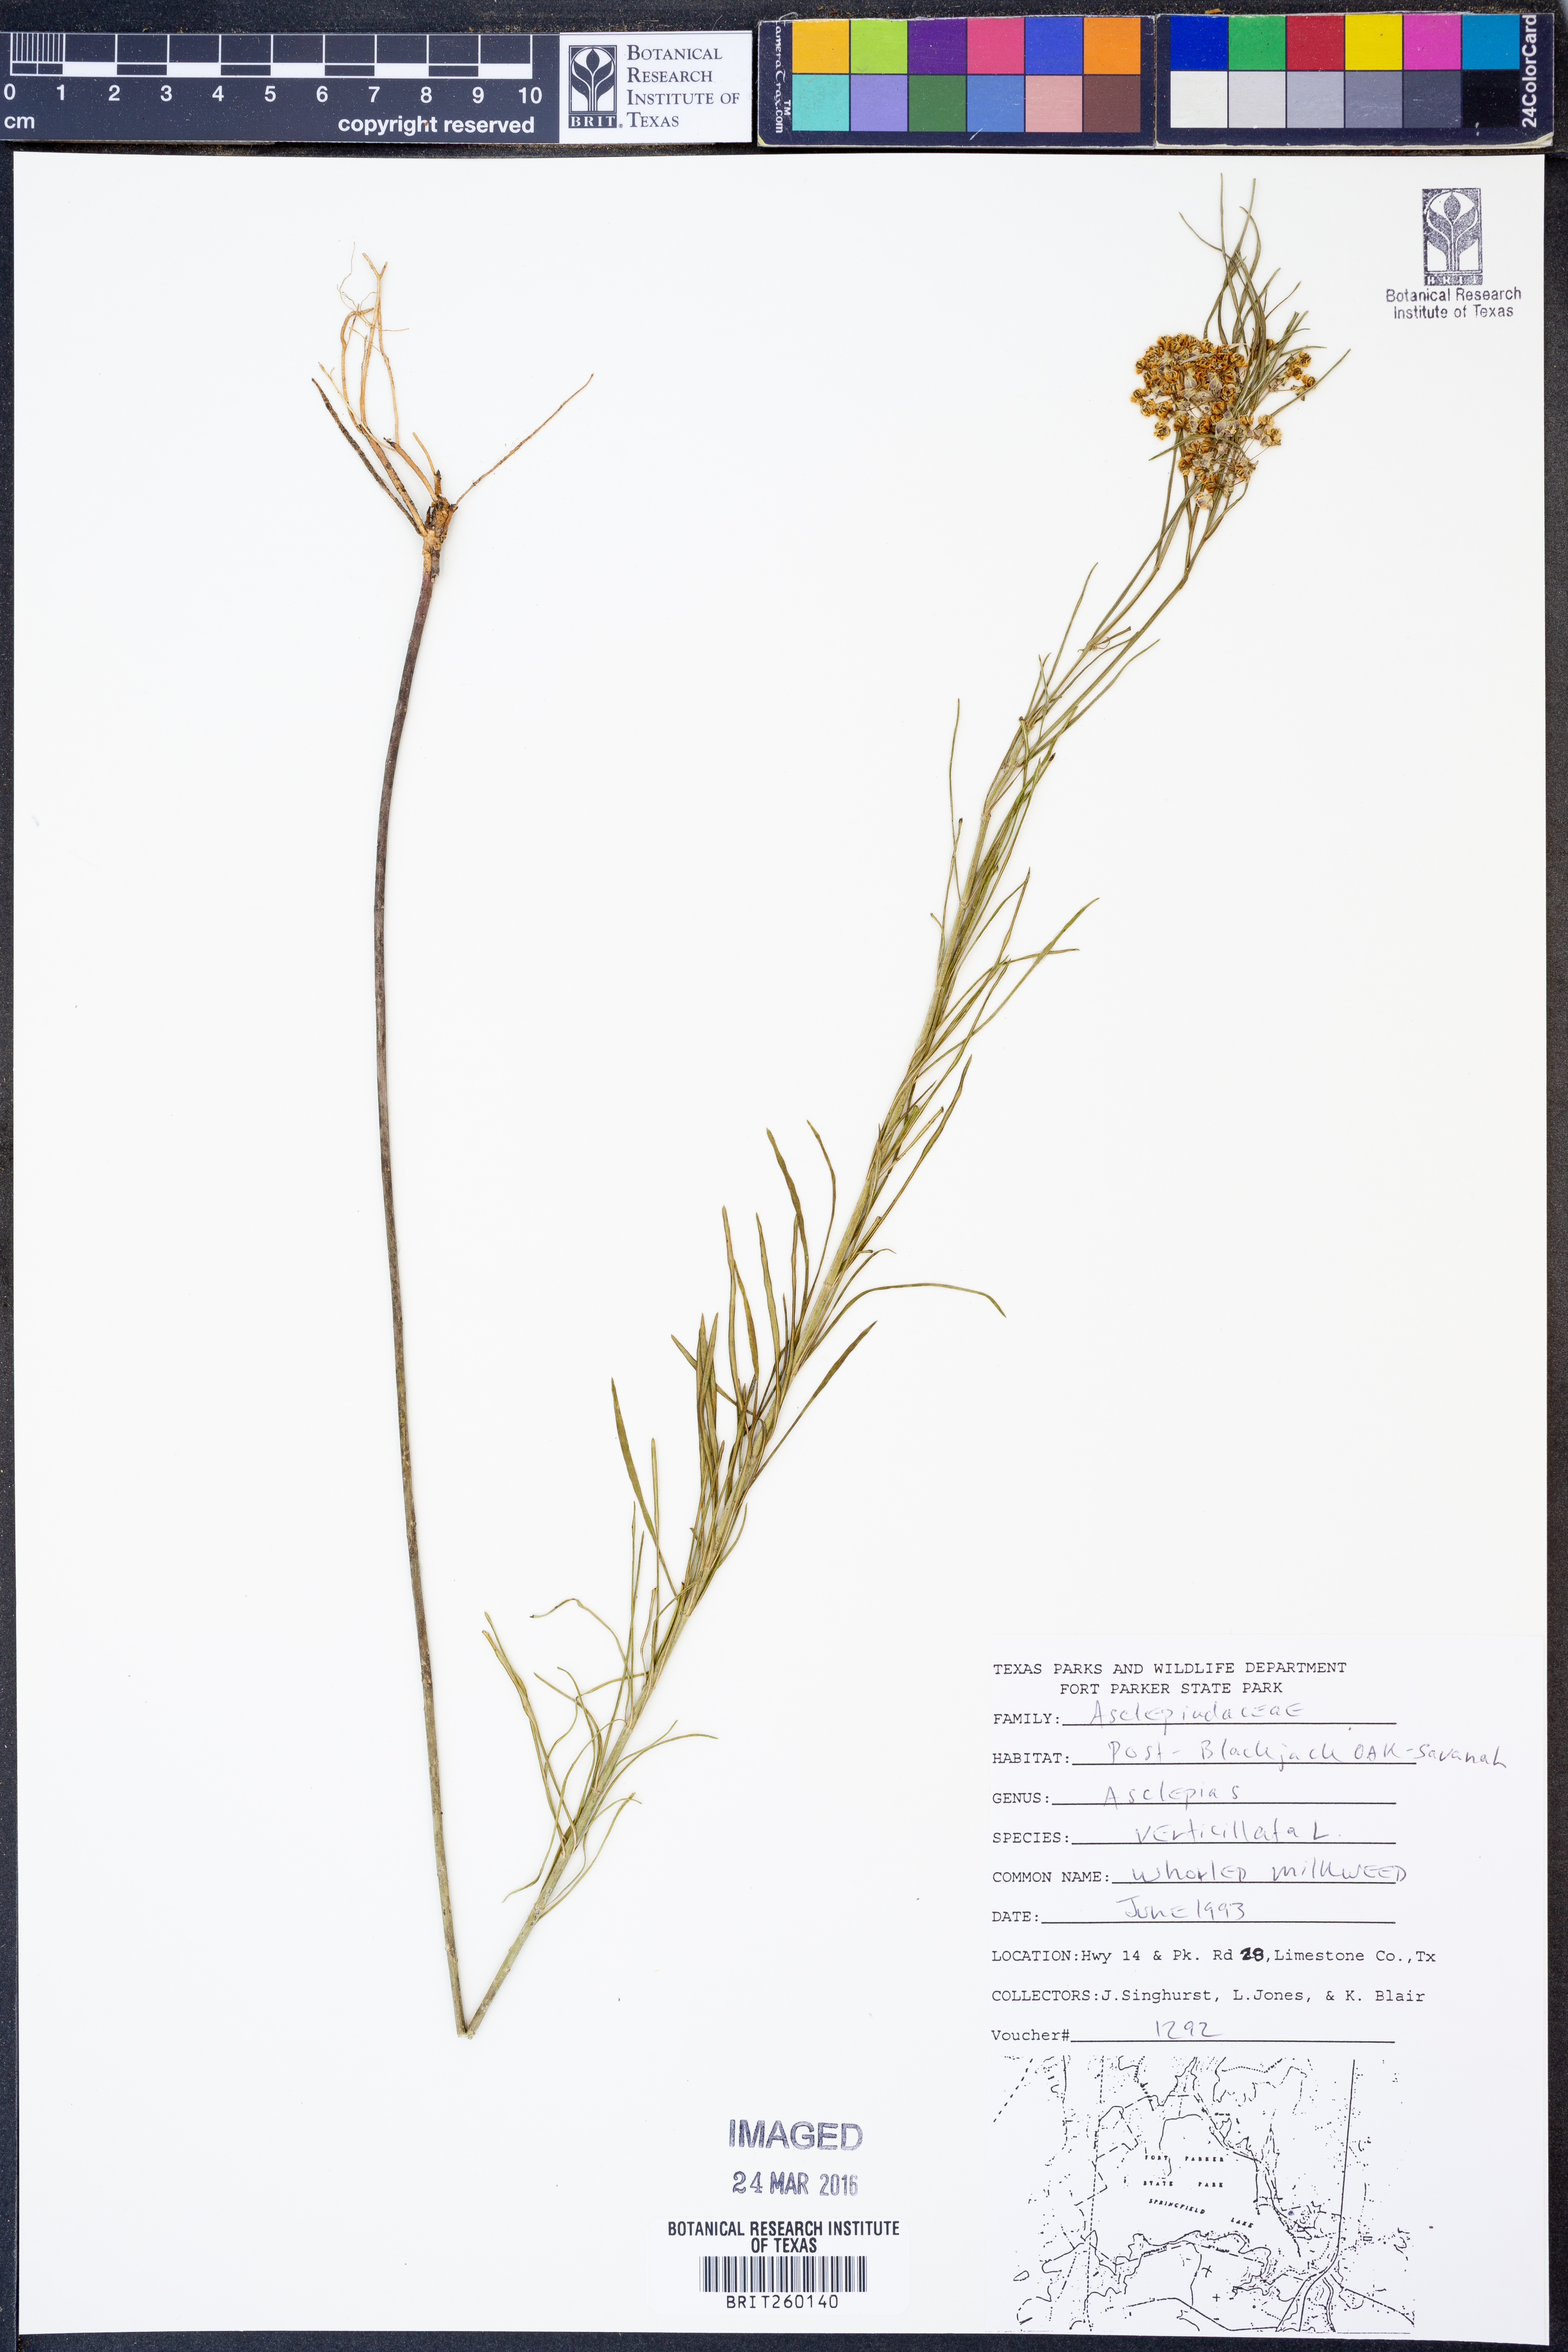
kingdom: Plantae
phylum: Tracheophyta
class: Magnoliopsida
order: Gentianales
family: Apocynaceae
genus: Asclepias
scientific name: Asclepias verticillata
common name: Eastern whorled milkweed
